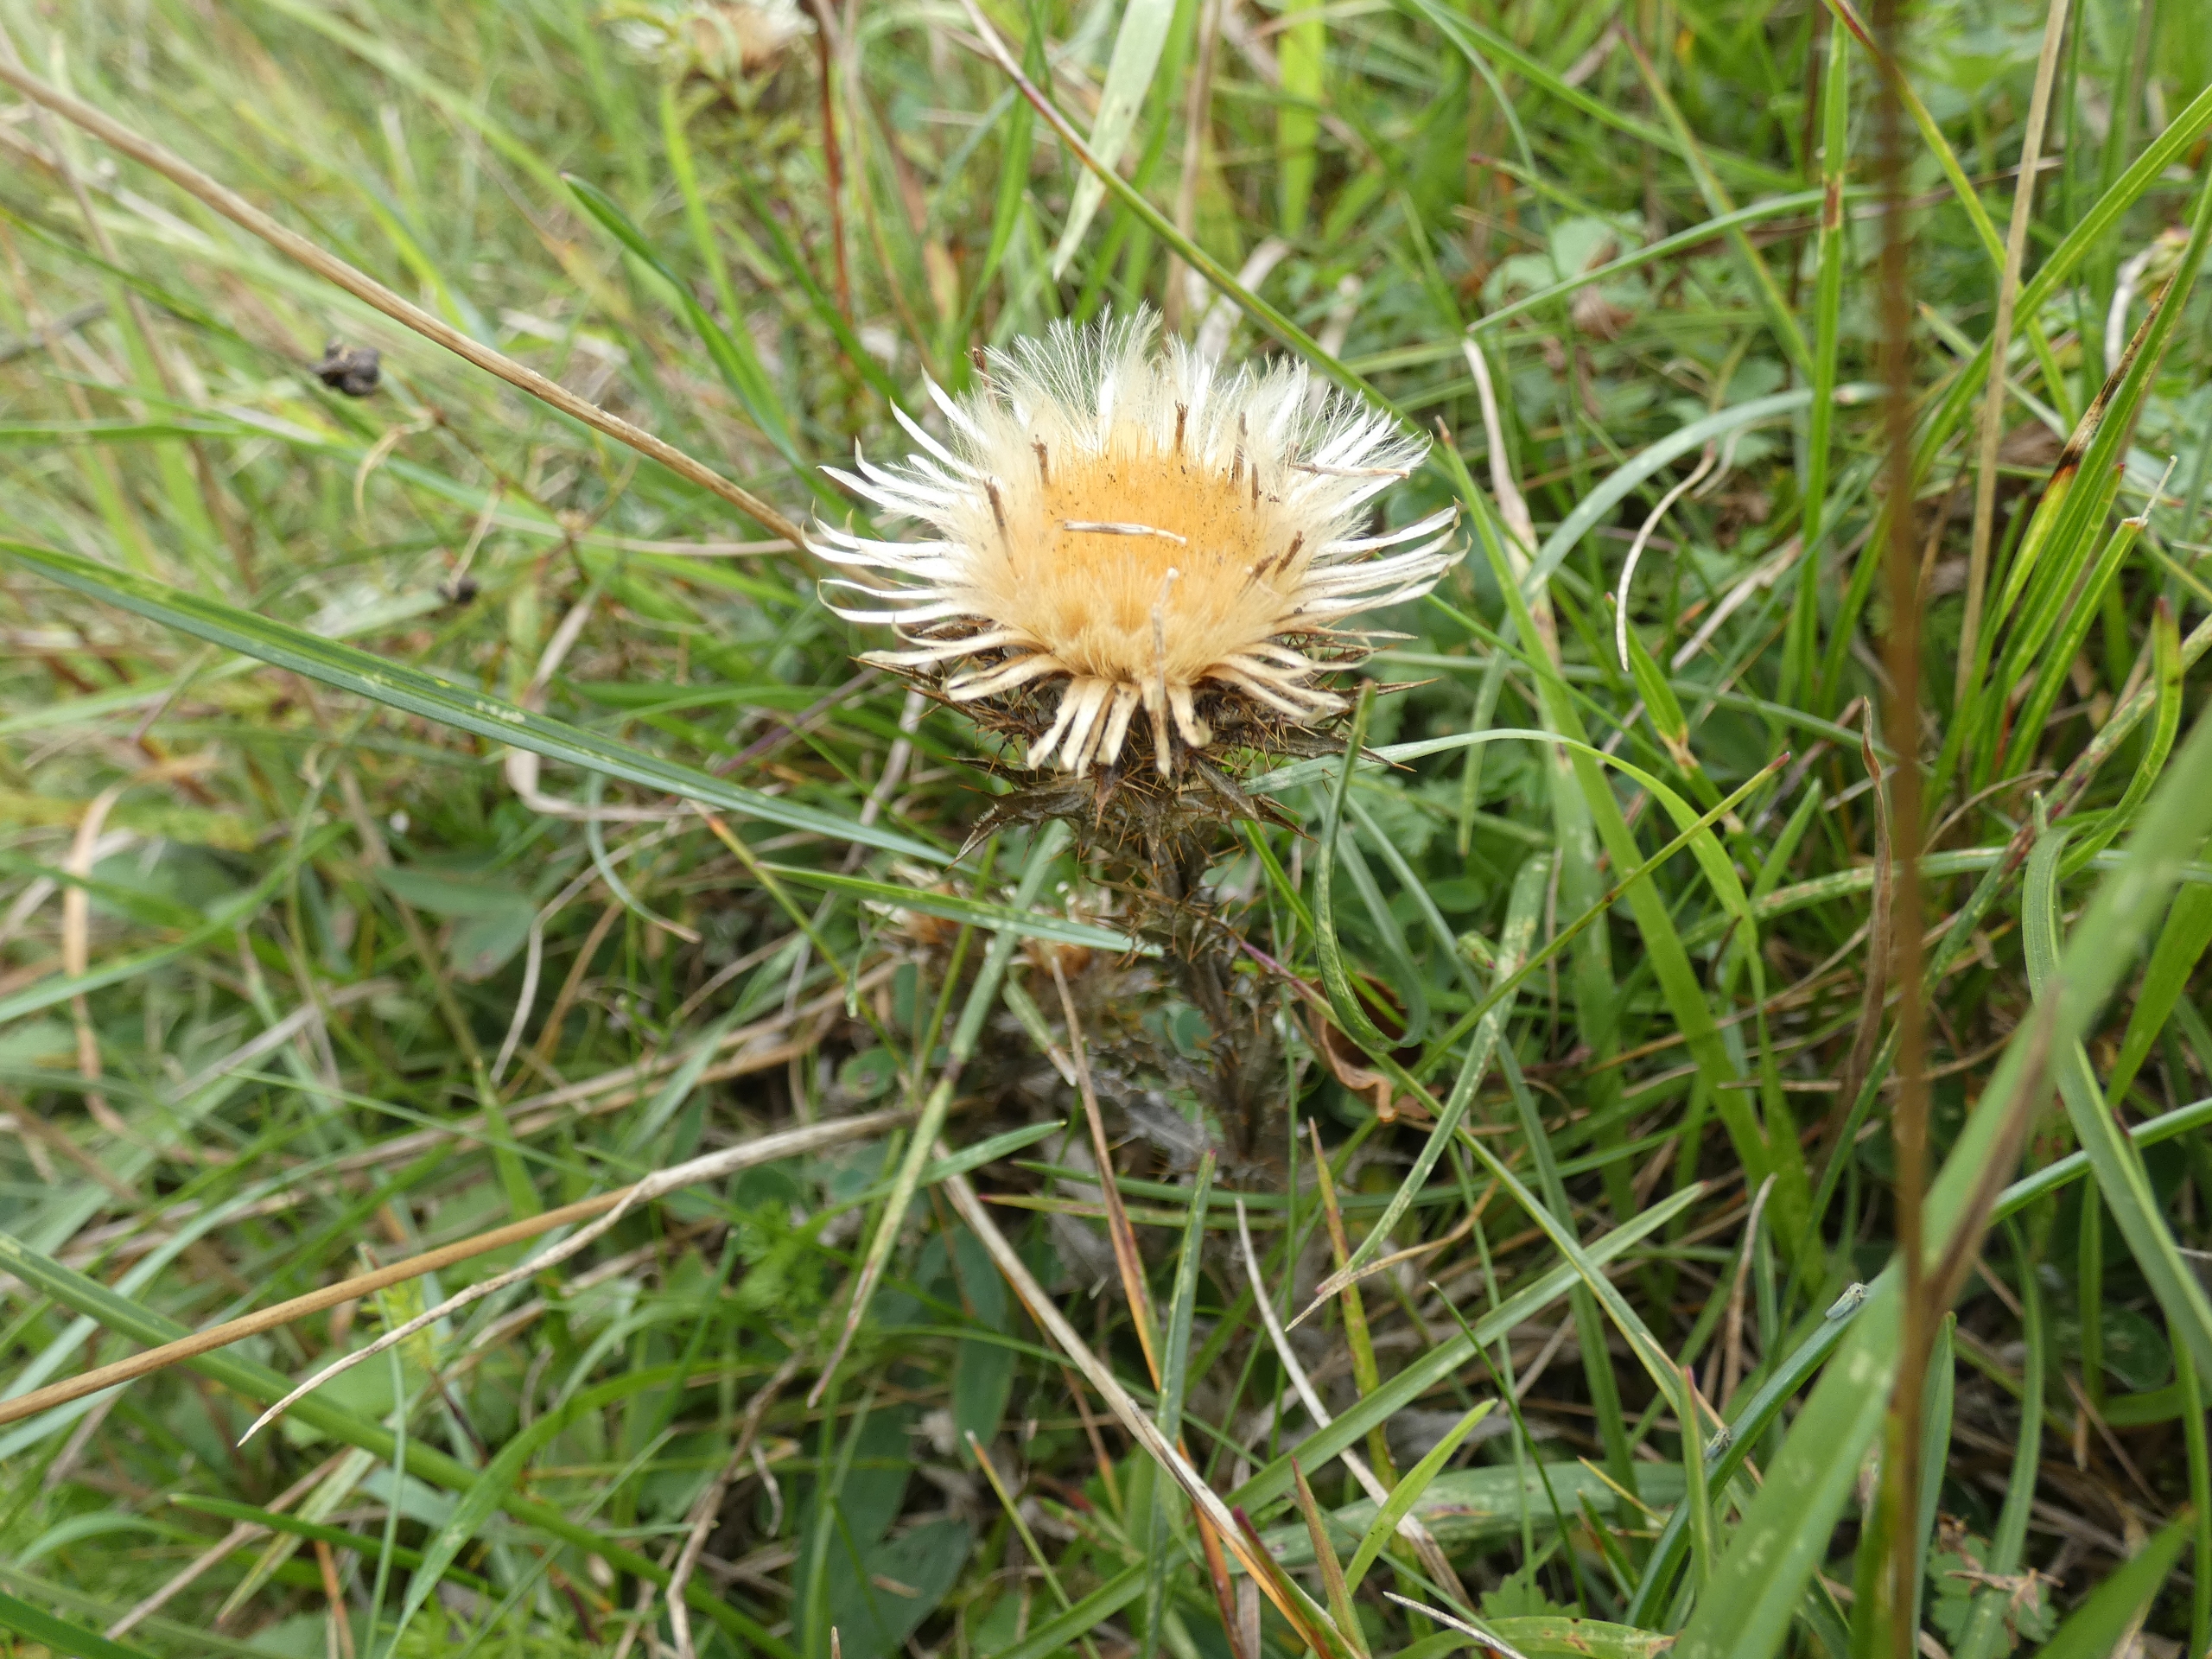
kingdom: Plantae
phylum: Tracheophyta
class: Magnoliopsida
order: Asterales
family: Asteraceae
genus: Carlina
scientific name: Carlina vulgaris
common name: Bakketidsel
